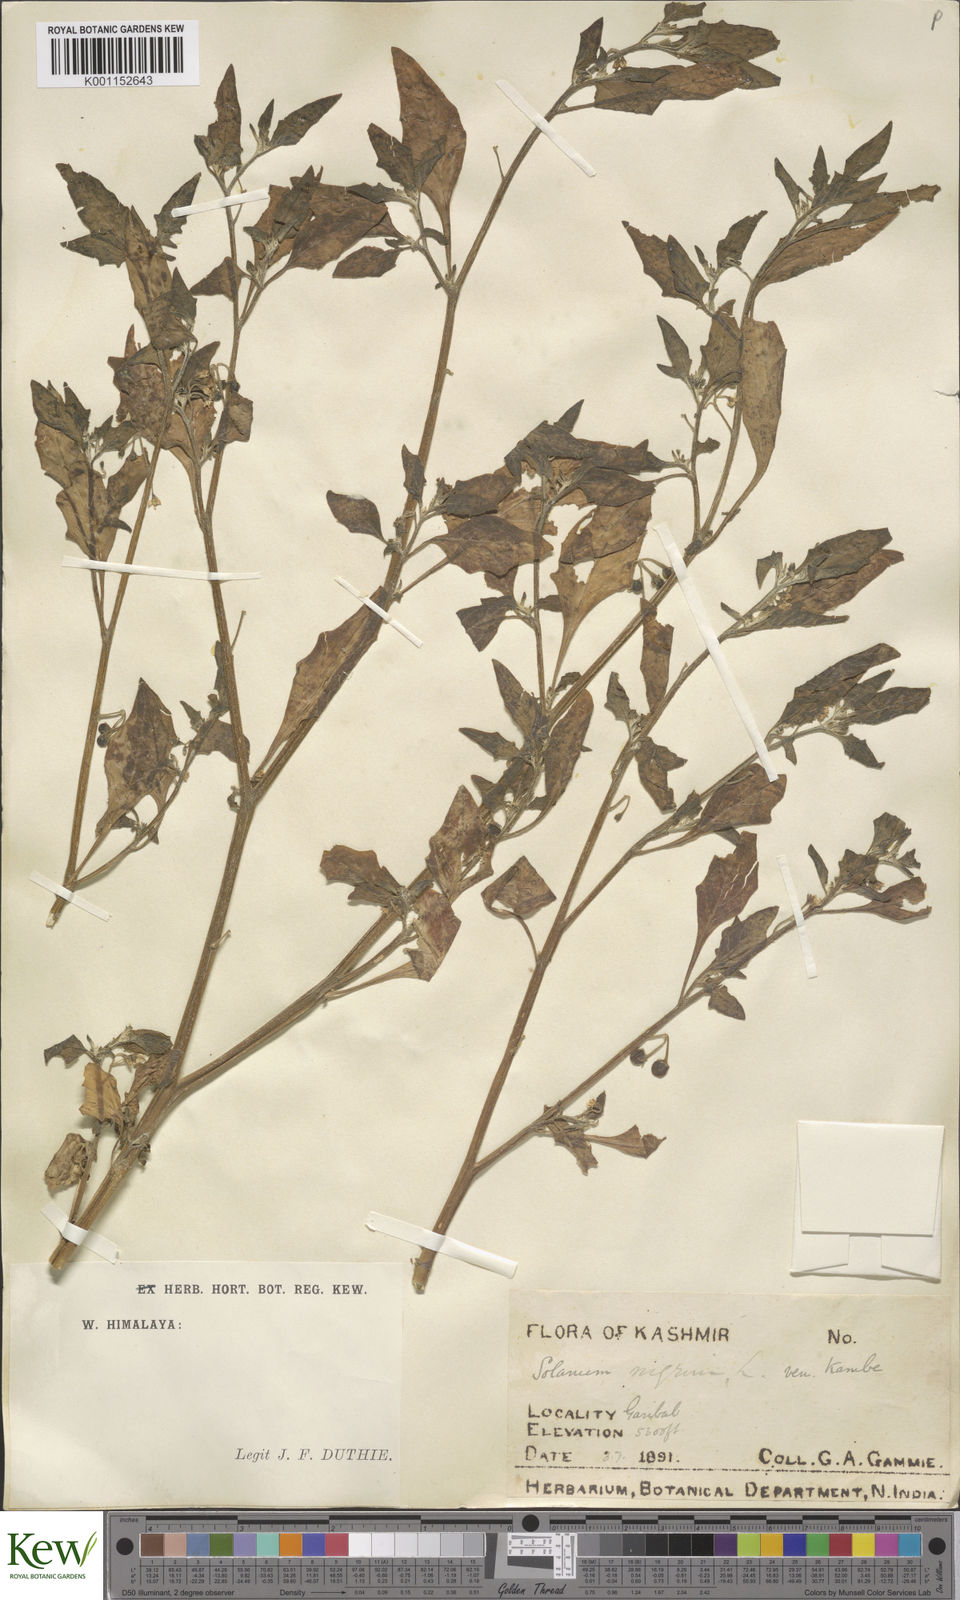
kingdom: Plantae
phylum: Tracheophyta
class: Magnoliopsida
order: Solanales
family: Solanaceae
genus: Solanum
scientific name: Solanum nigrum
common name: Black nightshade
